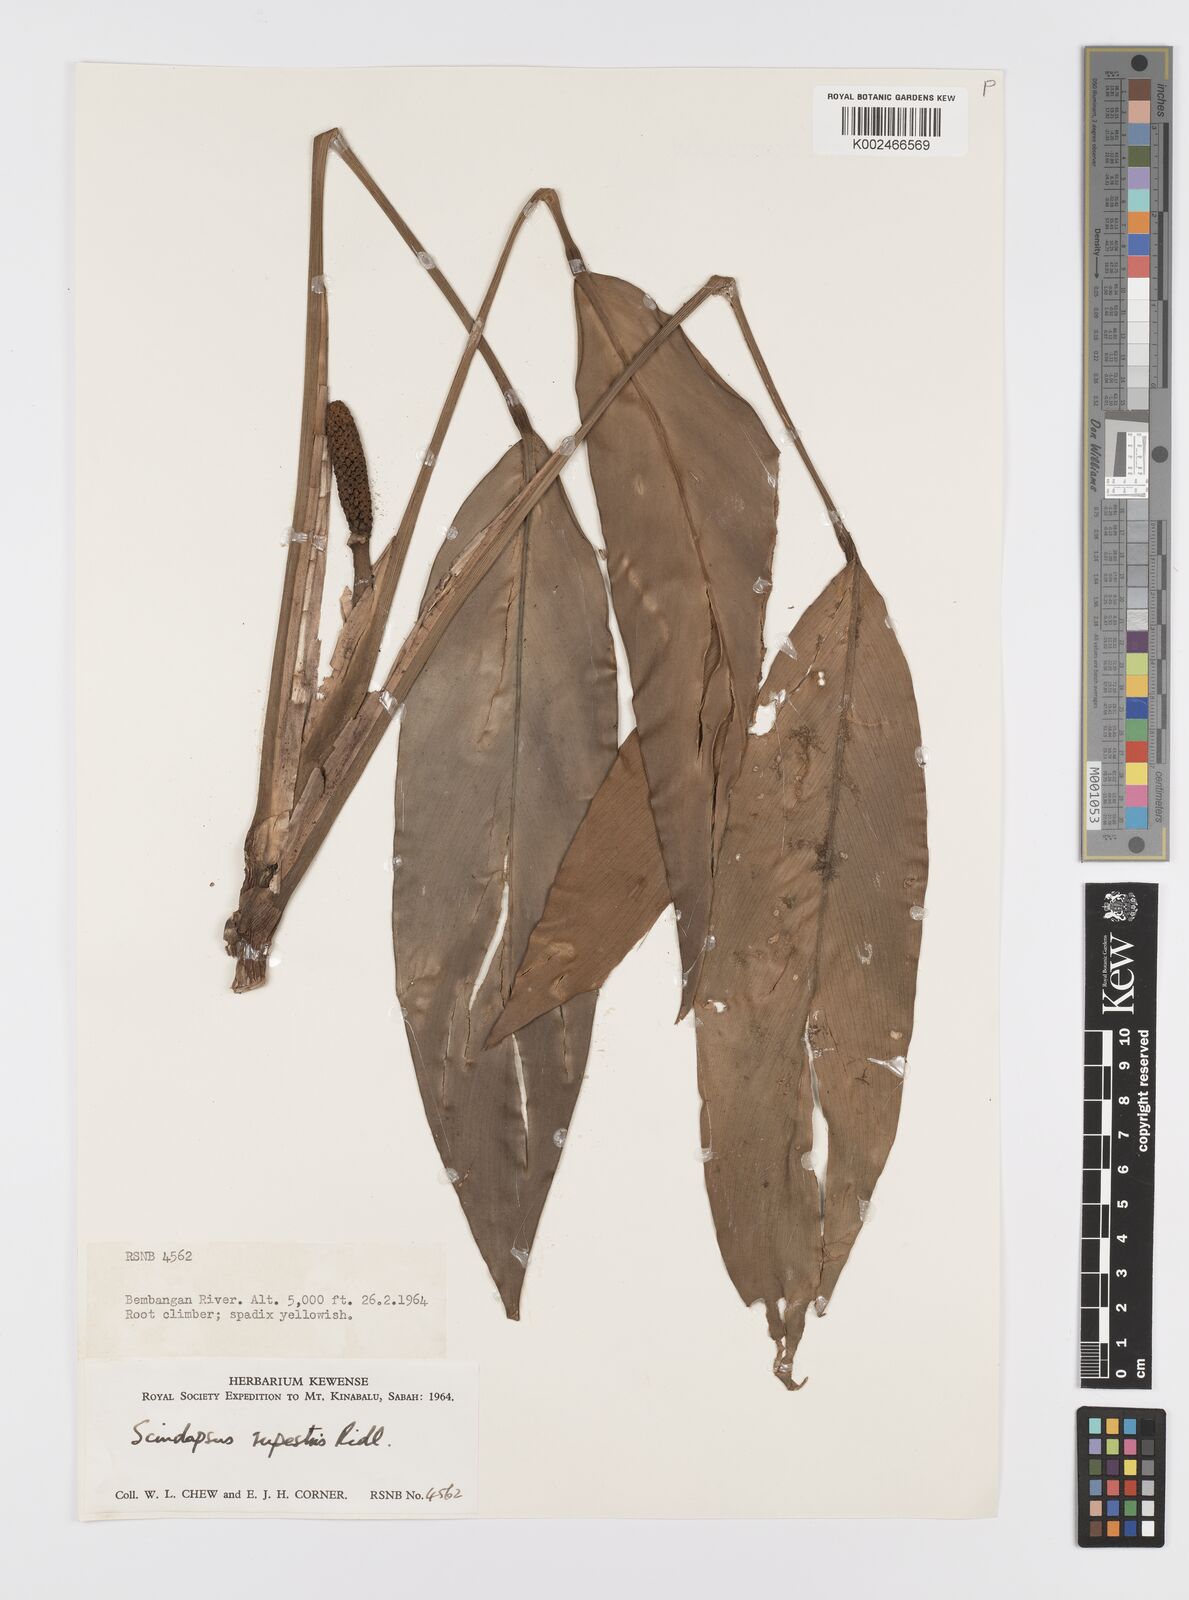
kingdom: Plantae
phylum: Tracheophyta
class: Liliopsida
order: Alismatales
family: Araceae
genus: Scindapsus
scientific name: Scindapsus coriaceus
